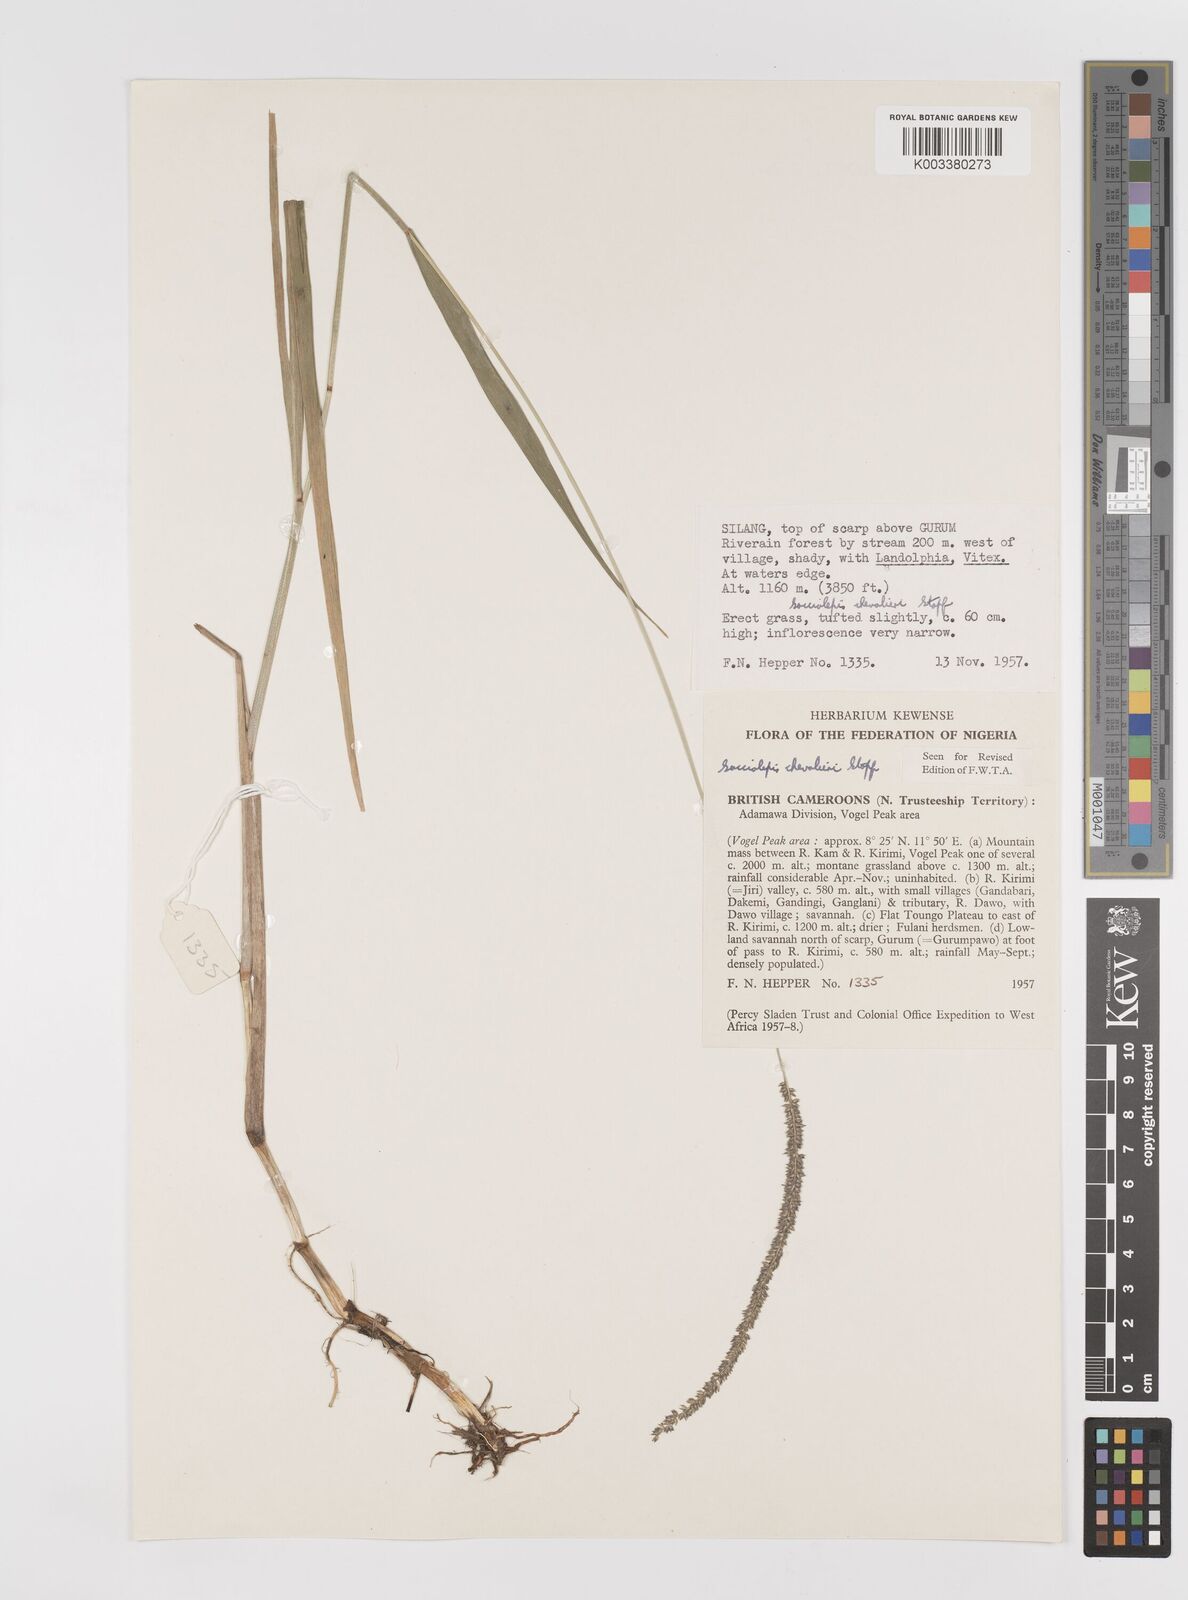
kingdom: Plantae
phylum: Tracheophyta
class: Liliopsida
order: Poales
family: Poaceae
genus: Sacciolepis
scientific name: Sacciolepis typhura
